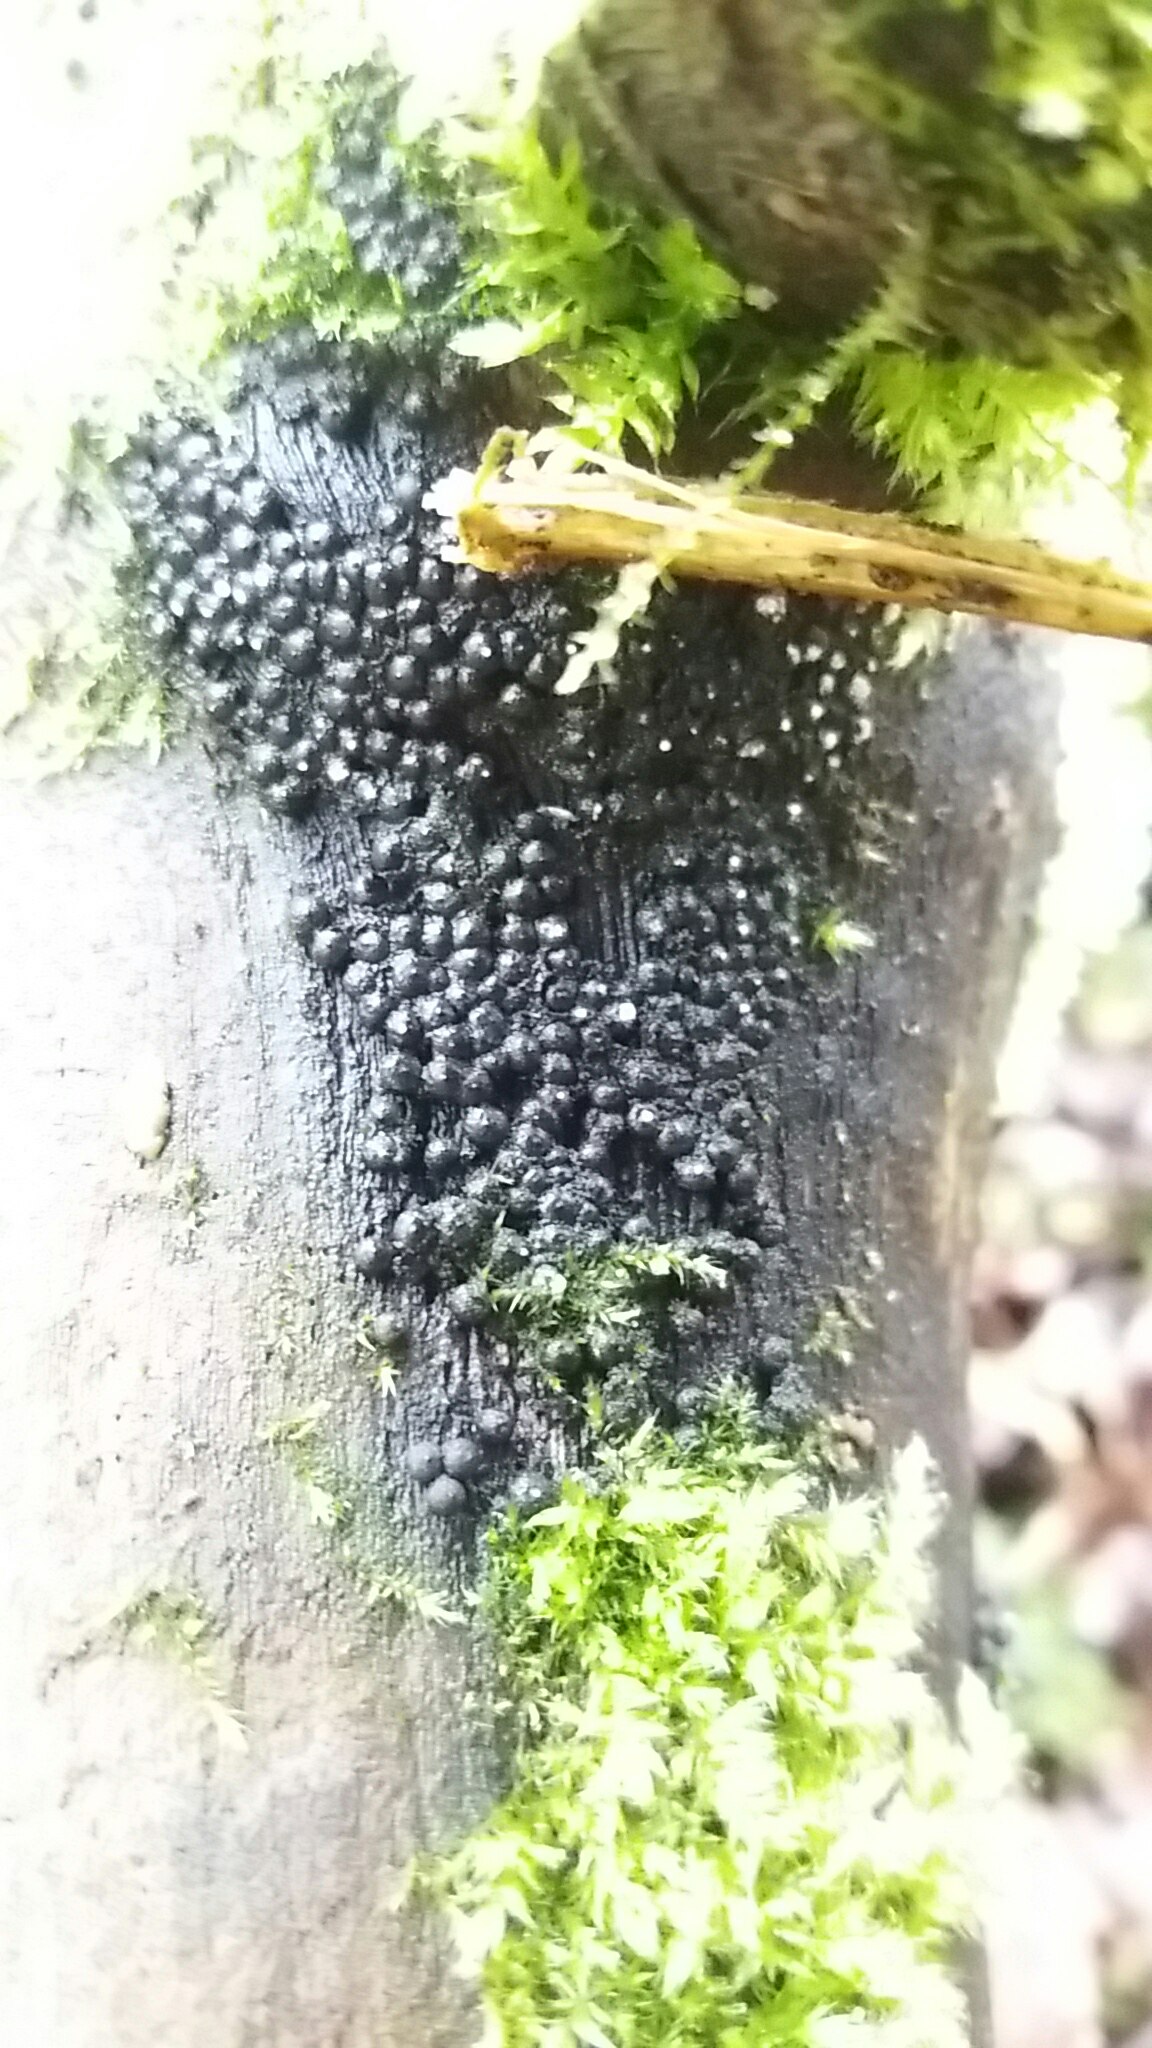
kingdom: Fungi
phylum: Ascomycota
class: Sordariomycetes
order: Xylariales
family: Xylariaceae
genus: Rosellinia
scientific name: Rosellinia
